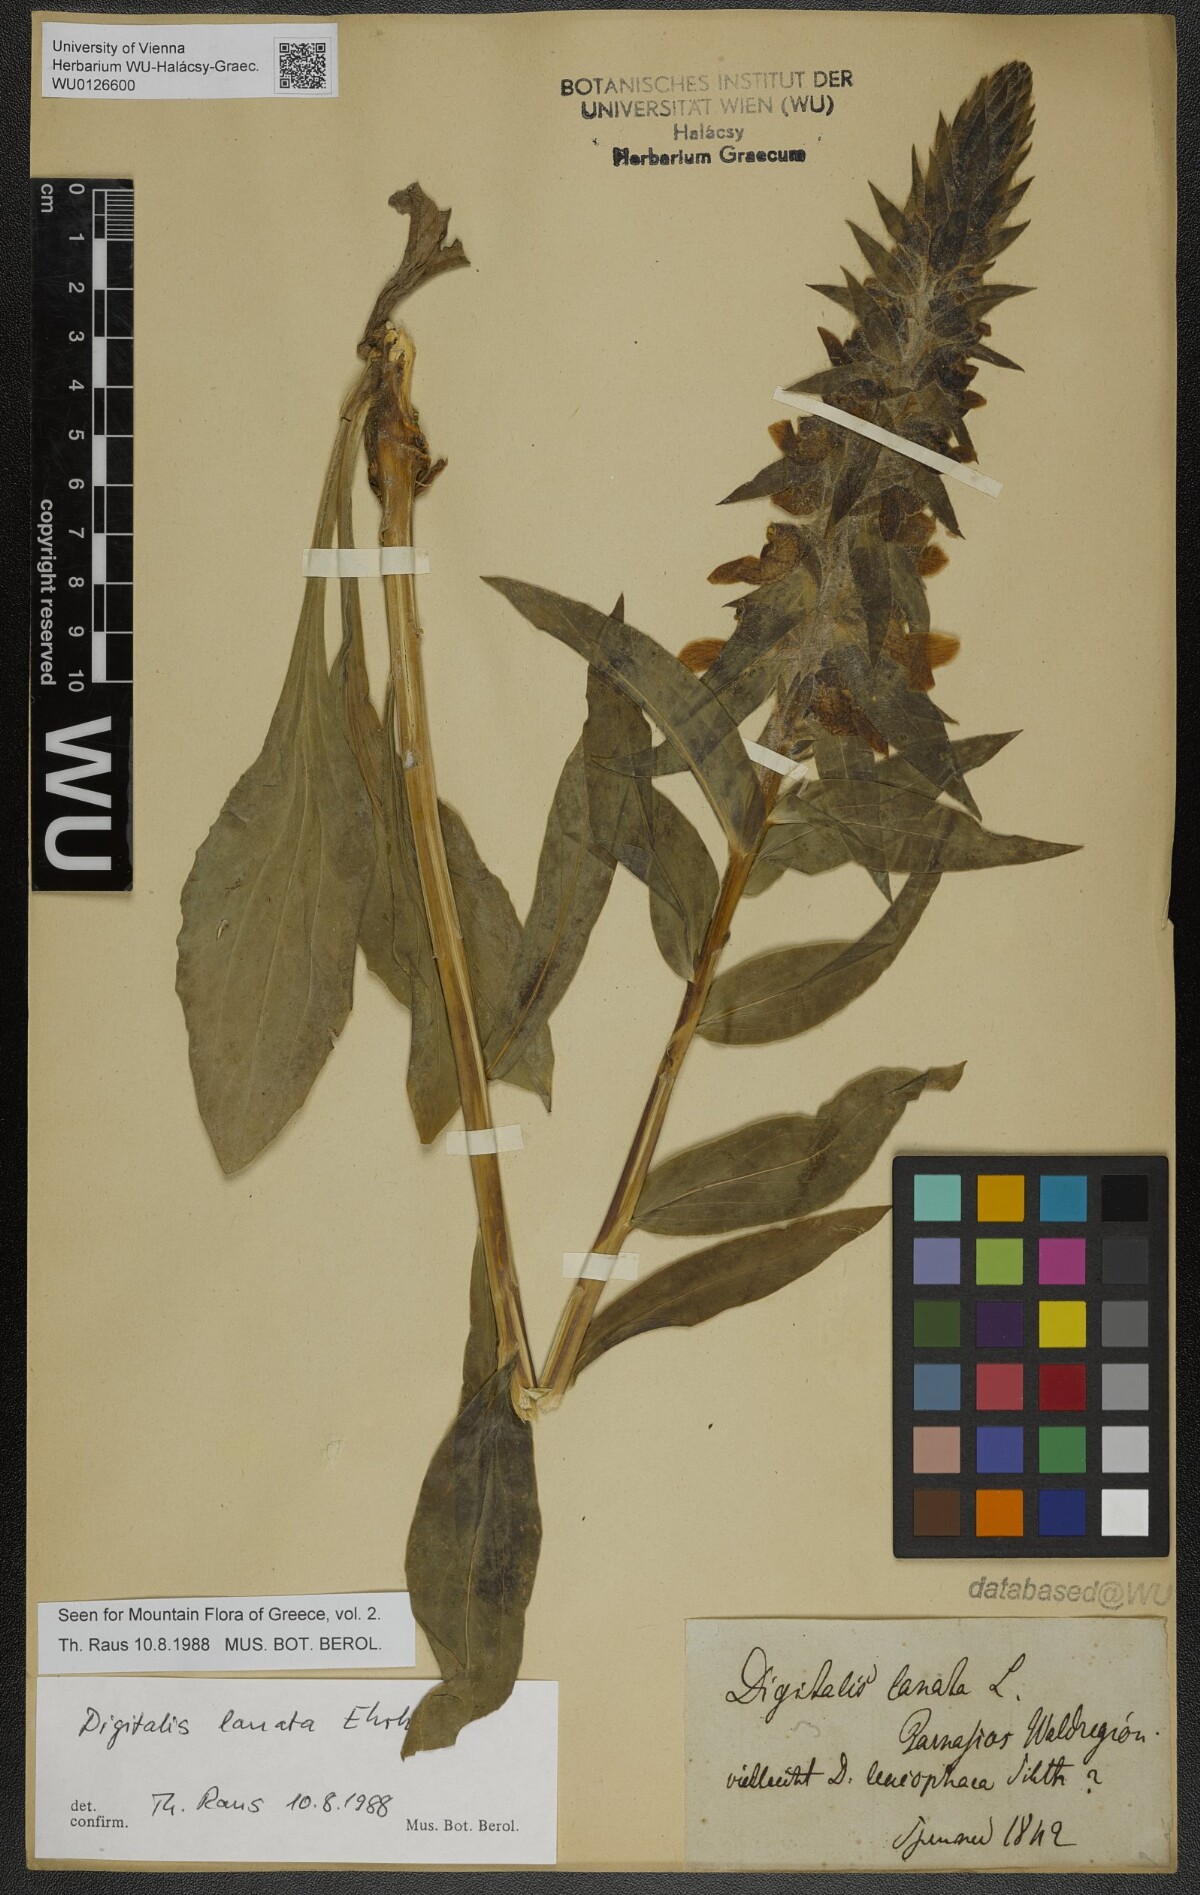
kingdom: Plantae
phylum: Tracheophyta
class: Magnoliopsida
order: Lamiales
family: Plantaginaceae
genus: Digitalis
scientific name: Digitalis lanata
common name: Grecian foxglove
